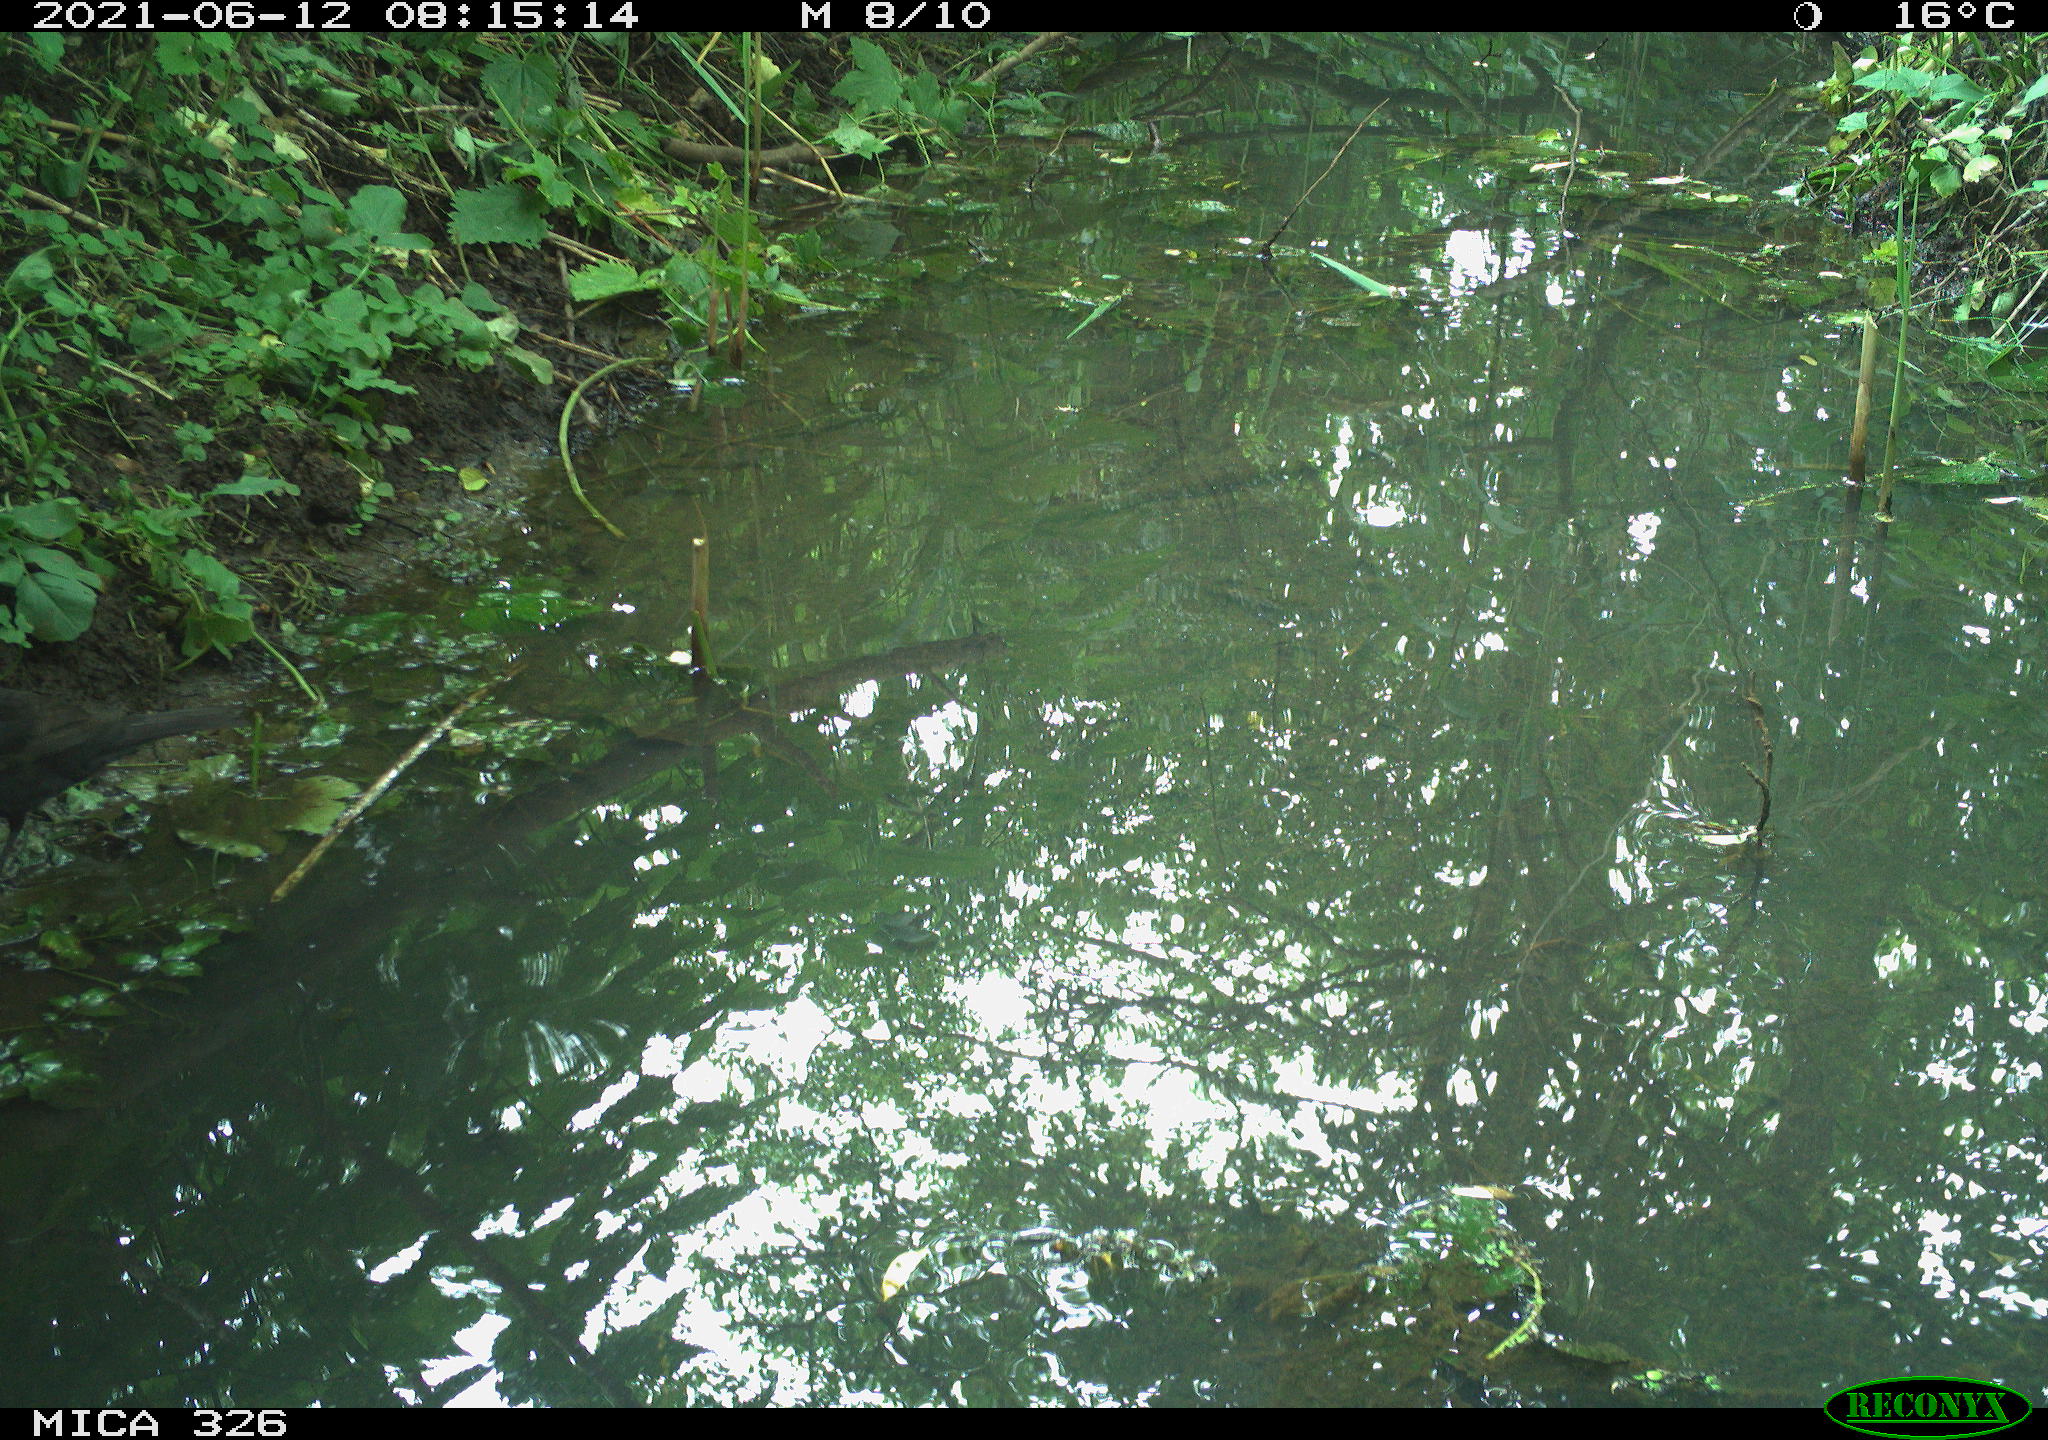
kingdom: Animalia
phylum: Chordata
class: Aves
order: Passeriformes
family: Turdidae
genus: Turdus
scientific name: Turdus merula
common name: Common blackbird
